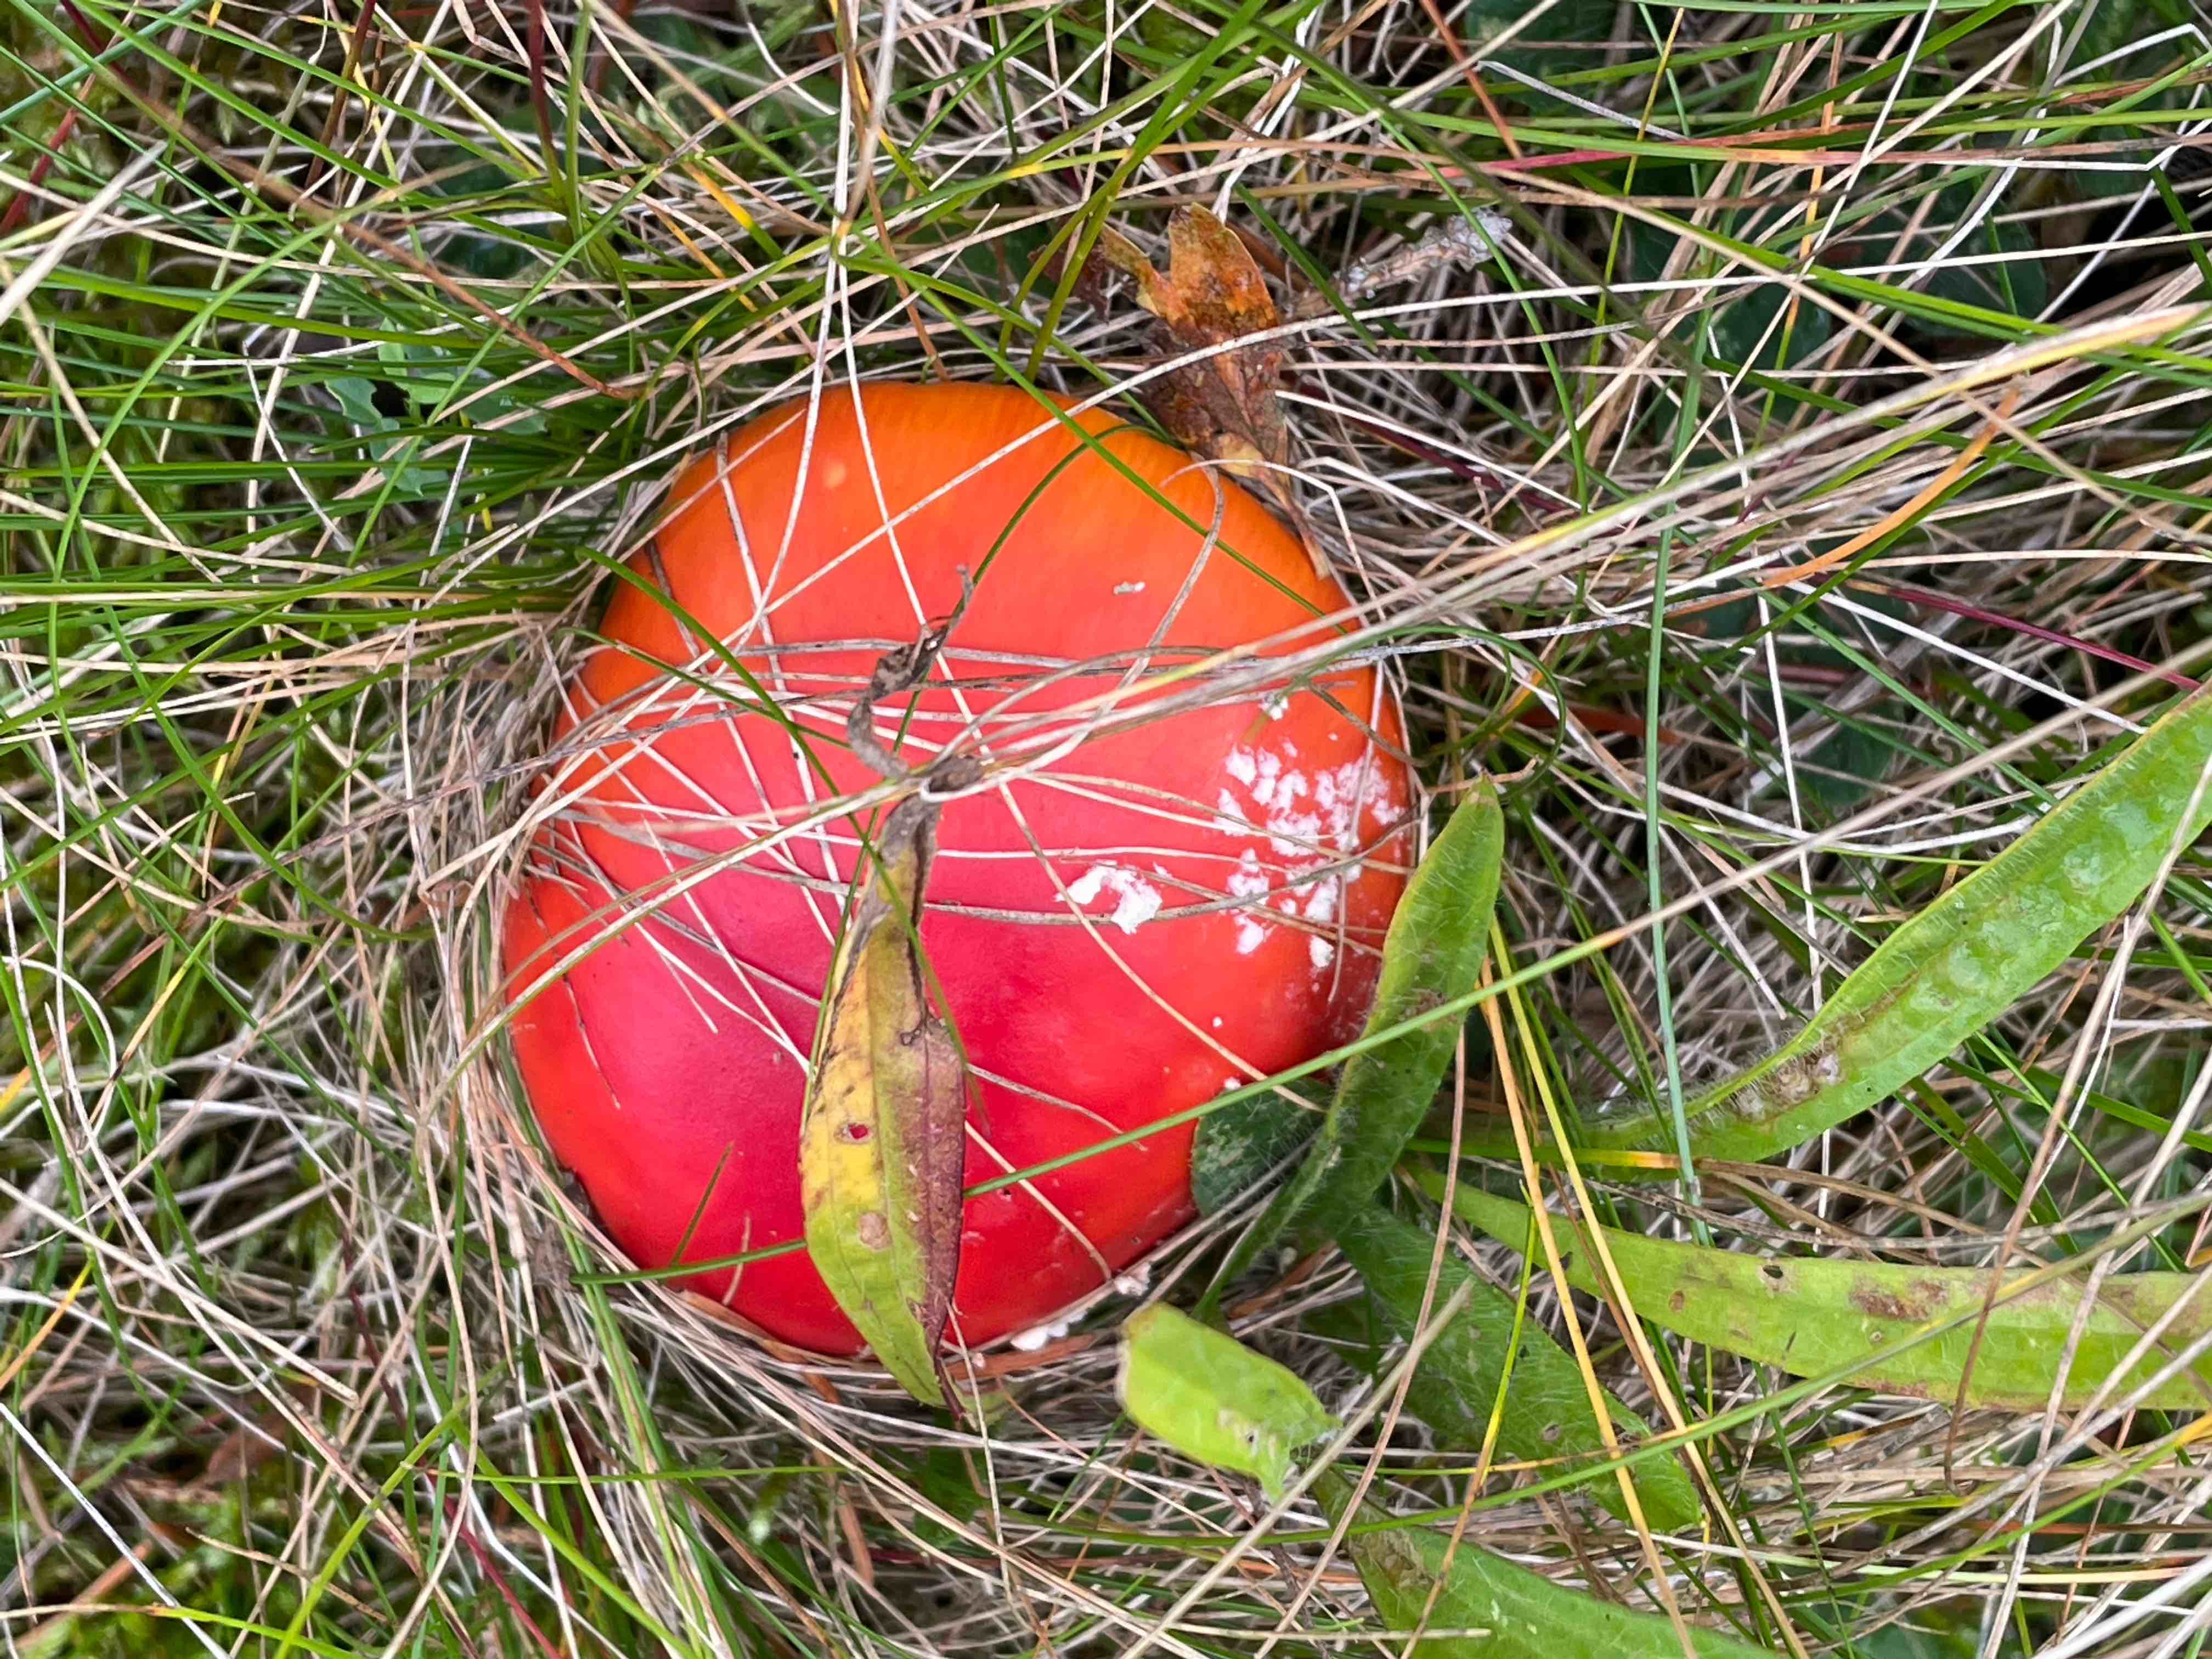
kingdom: Fungi
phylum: Basidiomycota
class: Agaricomycetes
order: Agaricales
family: Amanitaceae
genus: Amanita
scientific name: Amanita muscaria
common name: rød fluesvamp
